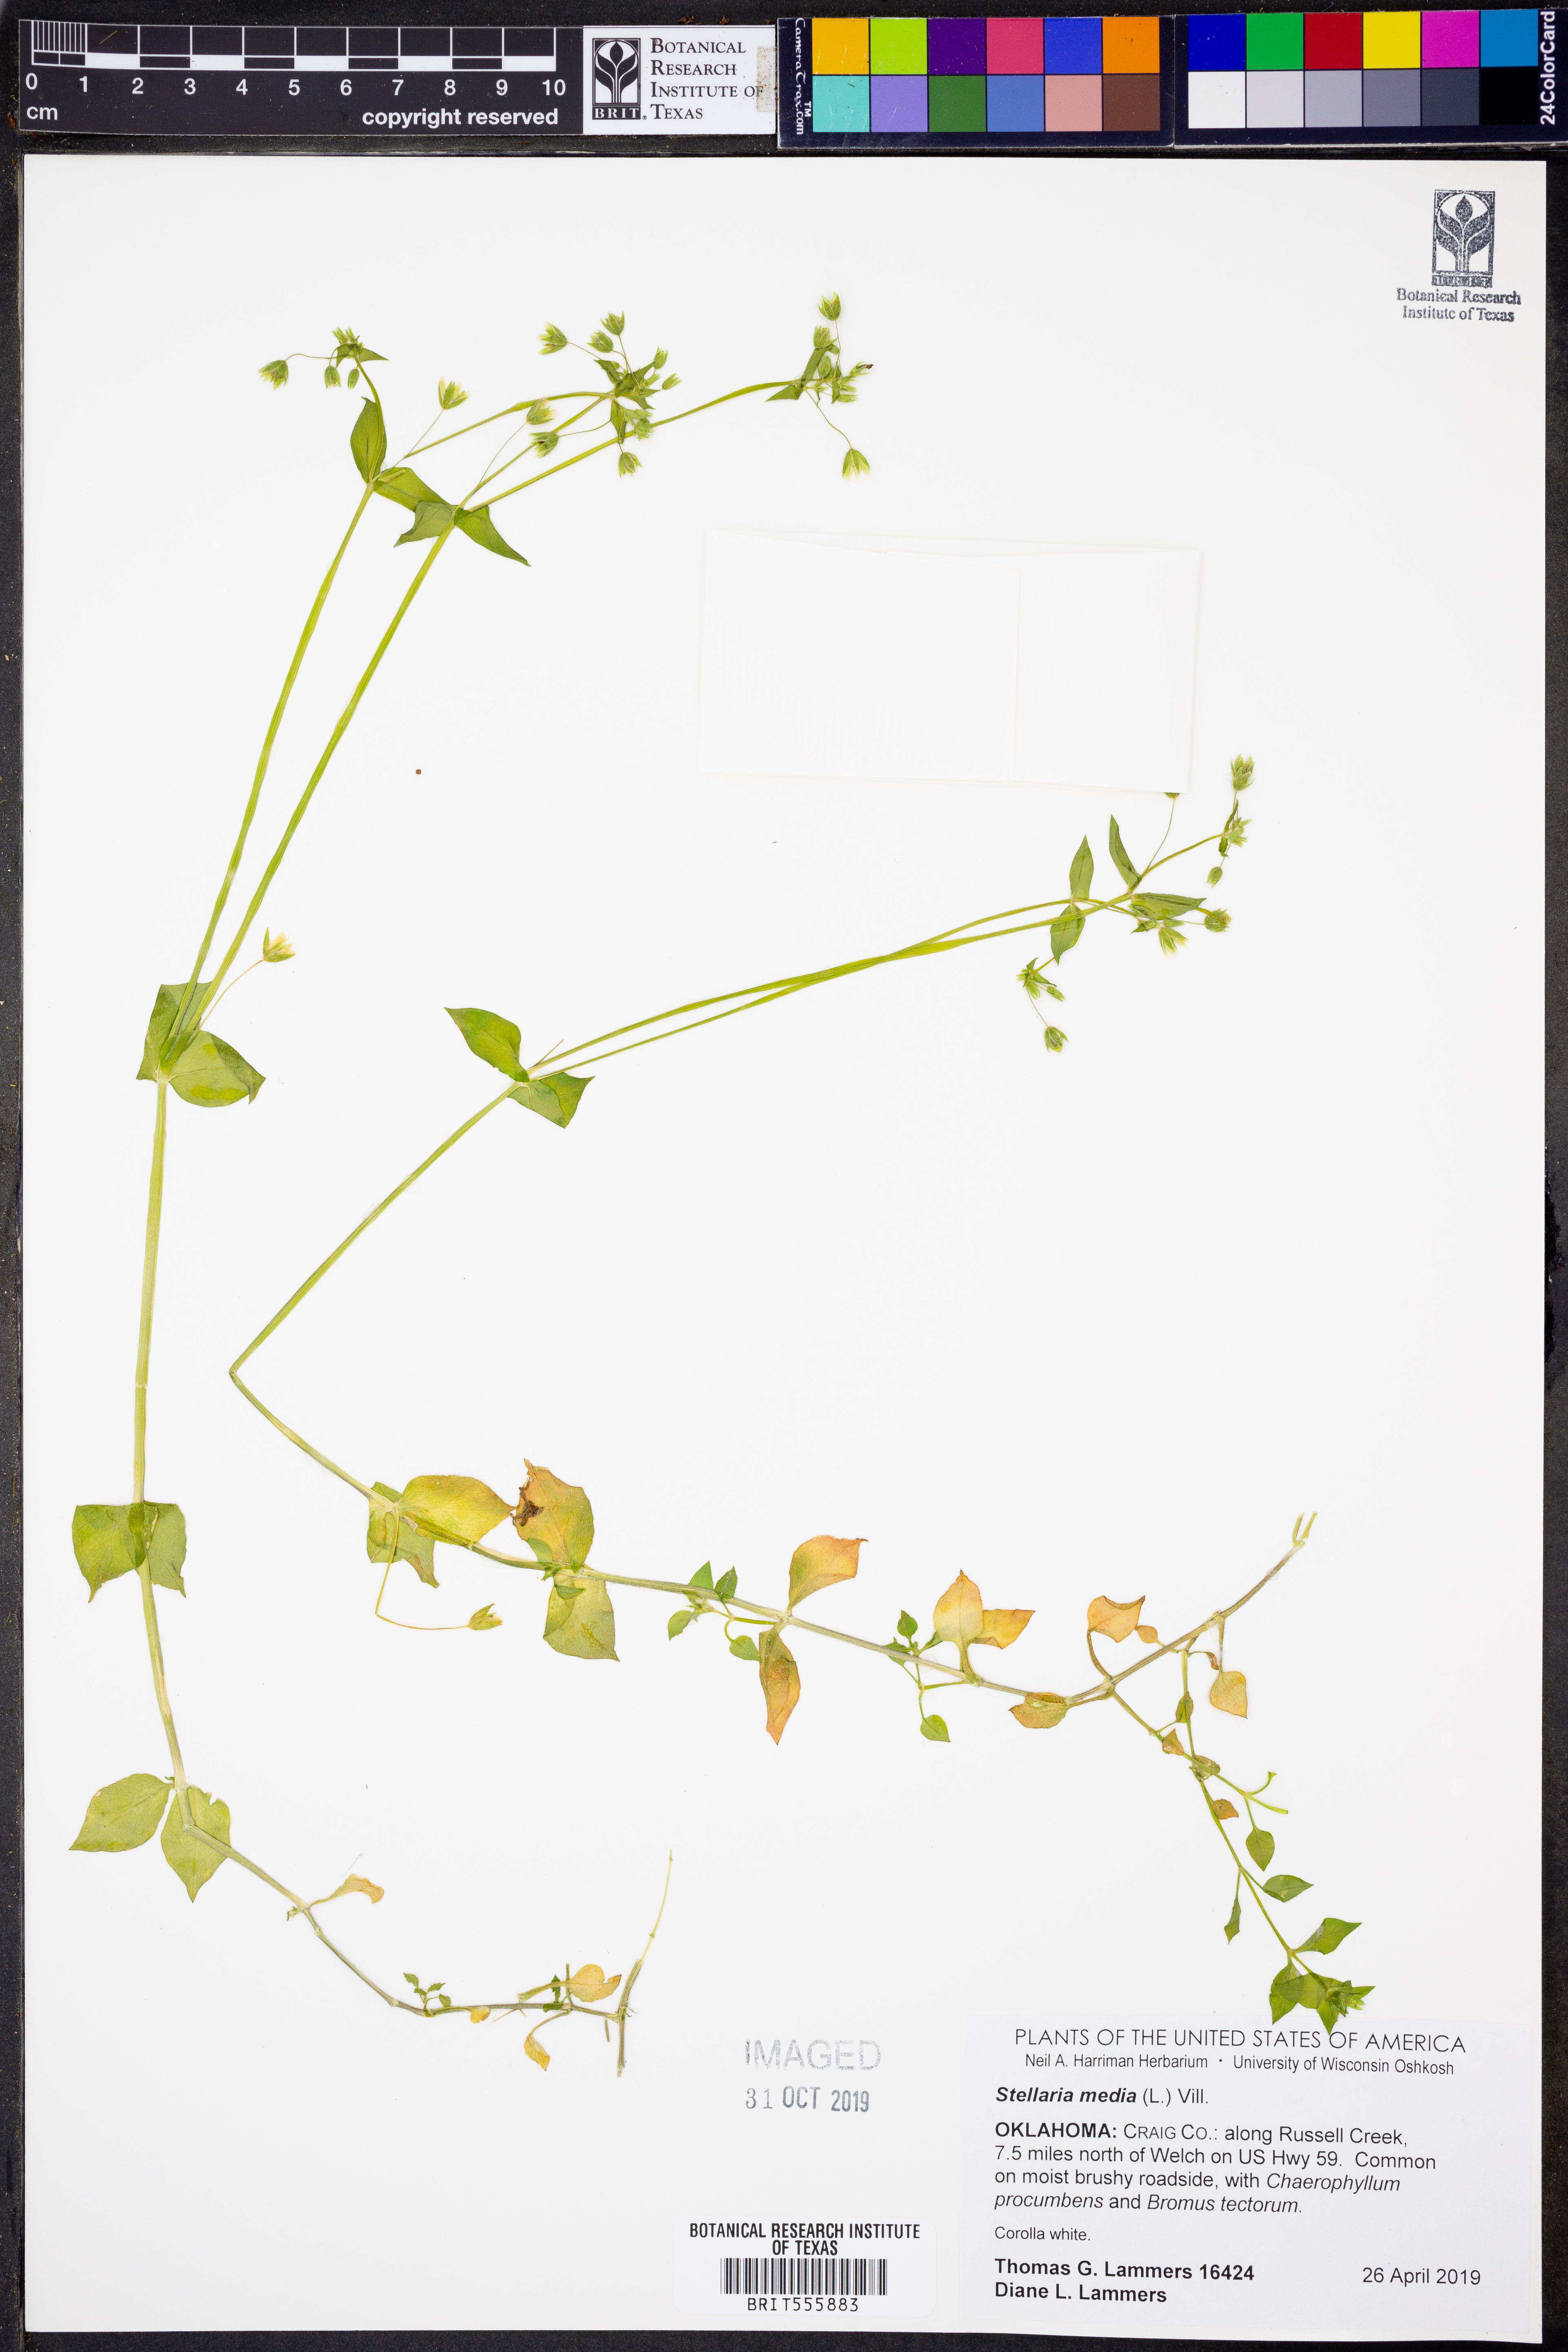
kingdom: Plantae
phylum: Tracheophyta
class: Magnoliopsida
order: Caryophyllales
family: Caryophyllaceae
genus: Stellaria
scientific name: Stellaria media
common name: Common chickweed
